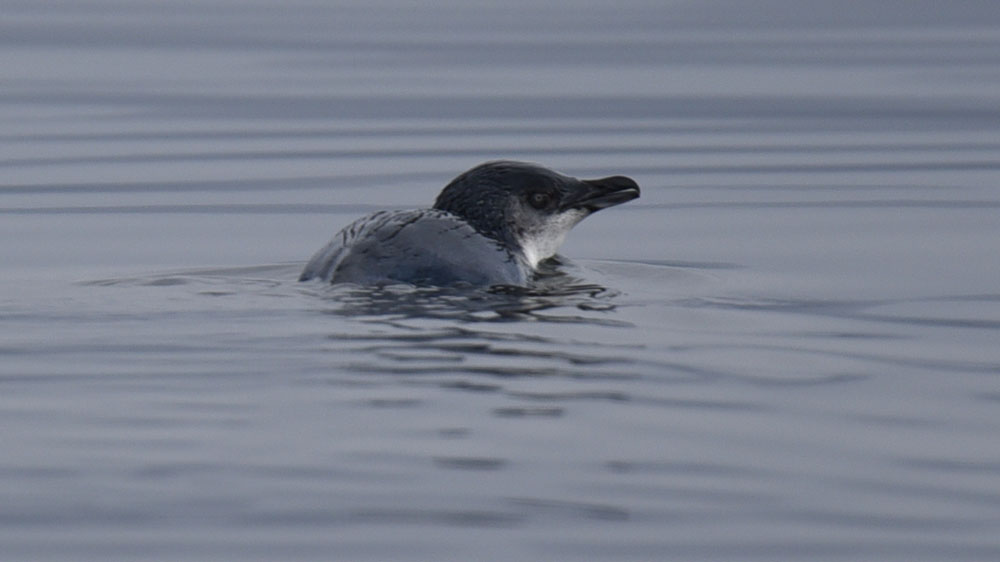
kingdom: Animalia
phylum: Chordata
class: Aves
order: Sphenisciformes
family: Spheniscidae
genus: Eudyptula
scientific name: Eudyptula minor
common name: Little penguin
